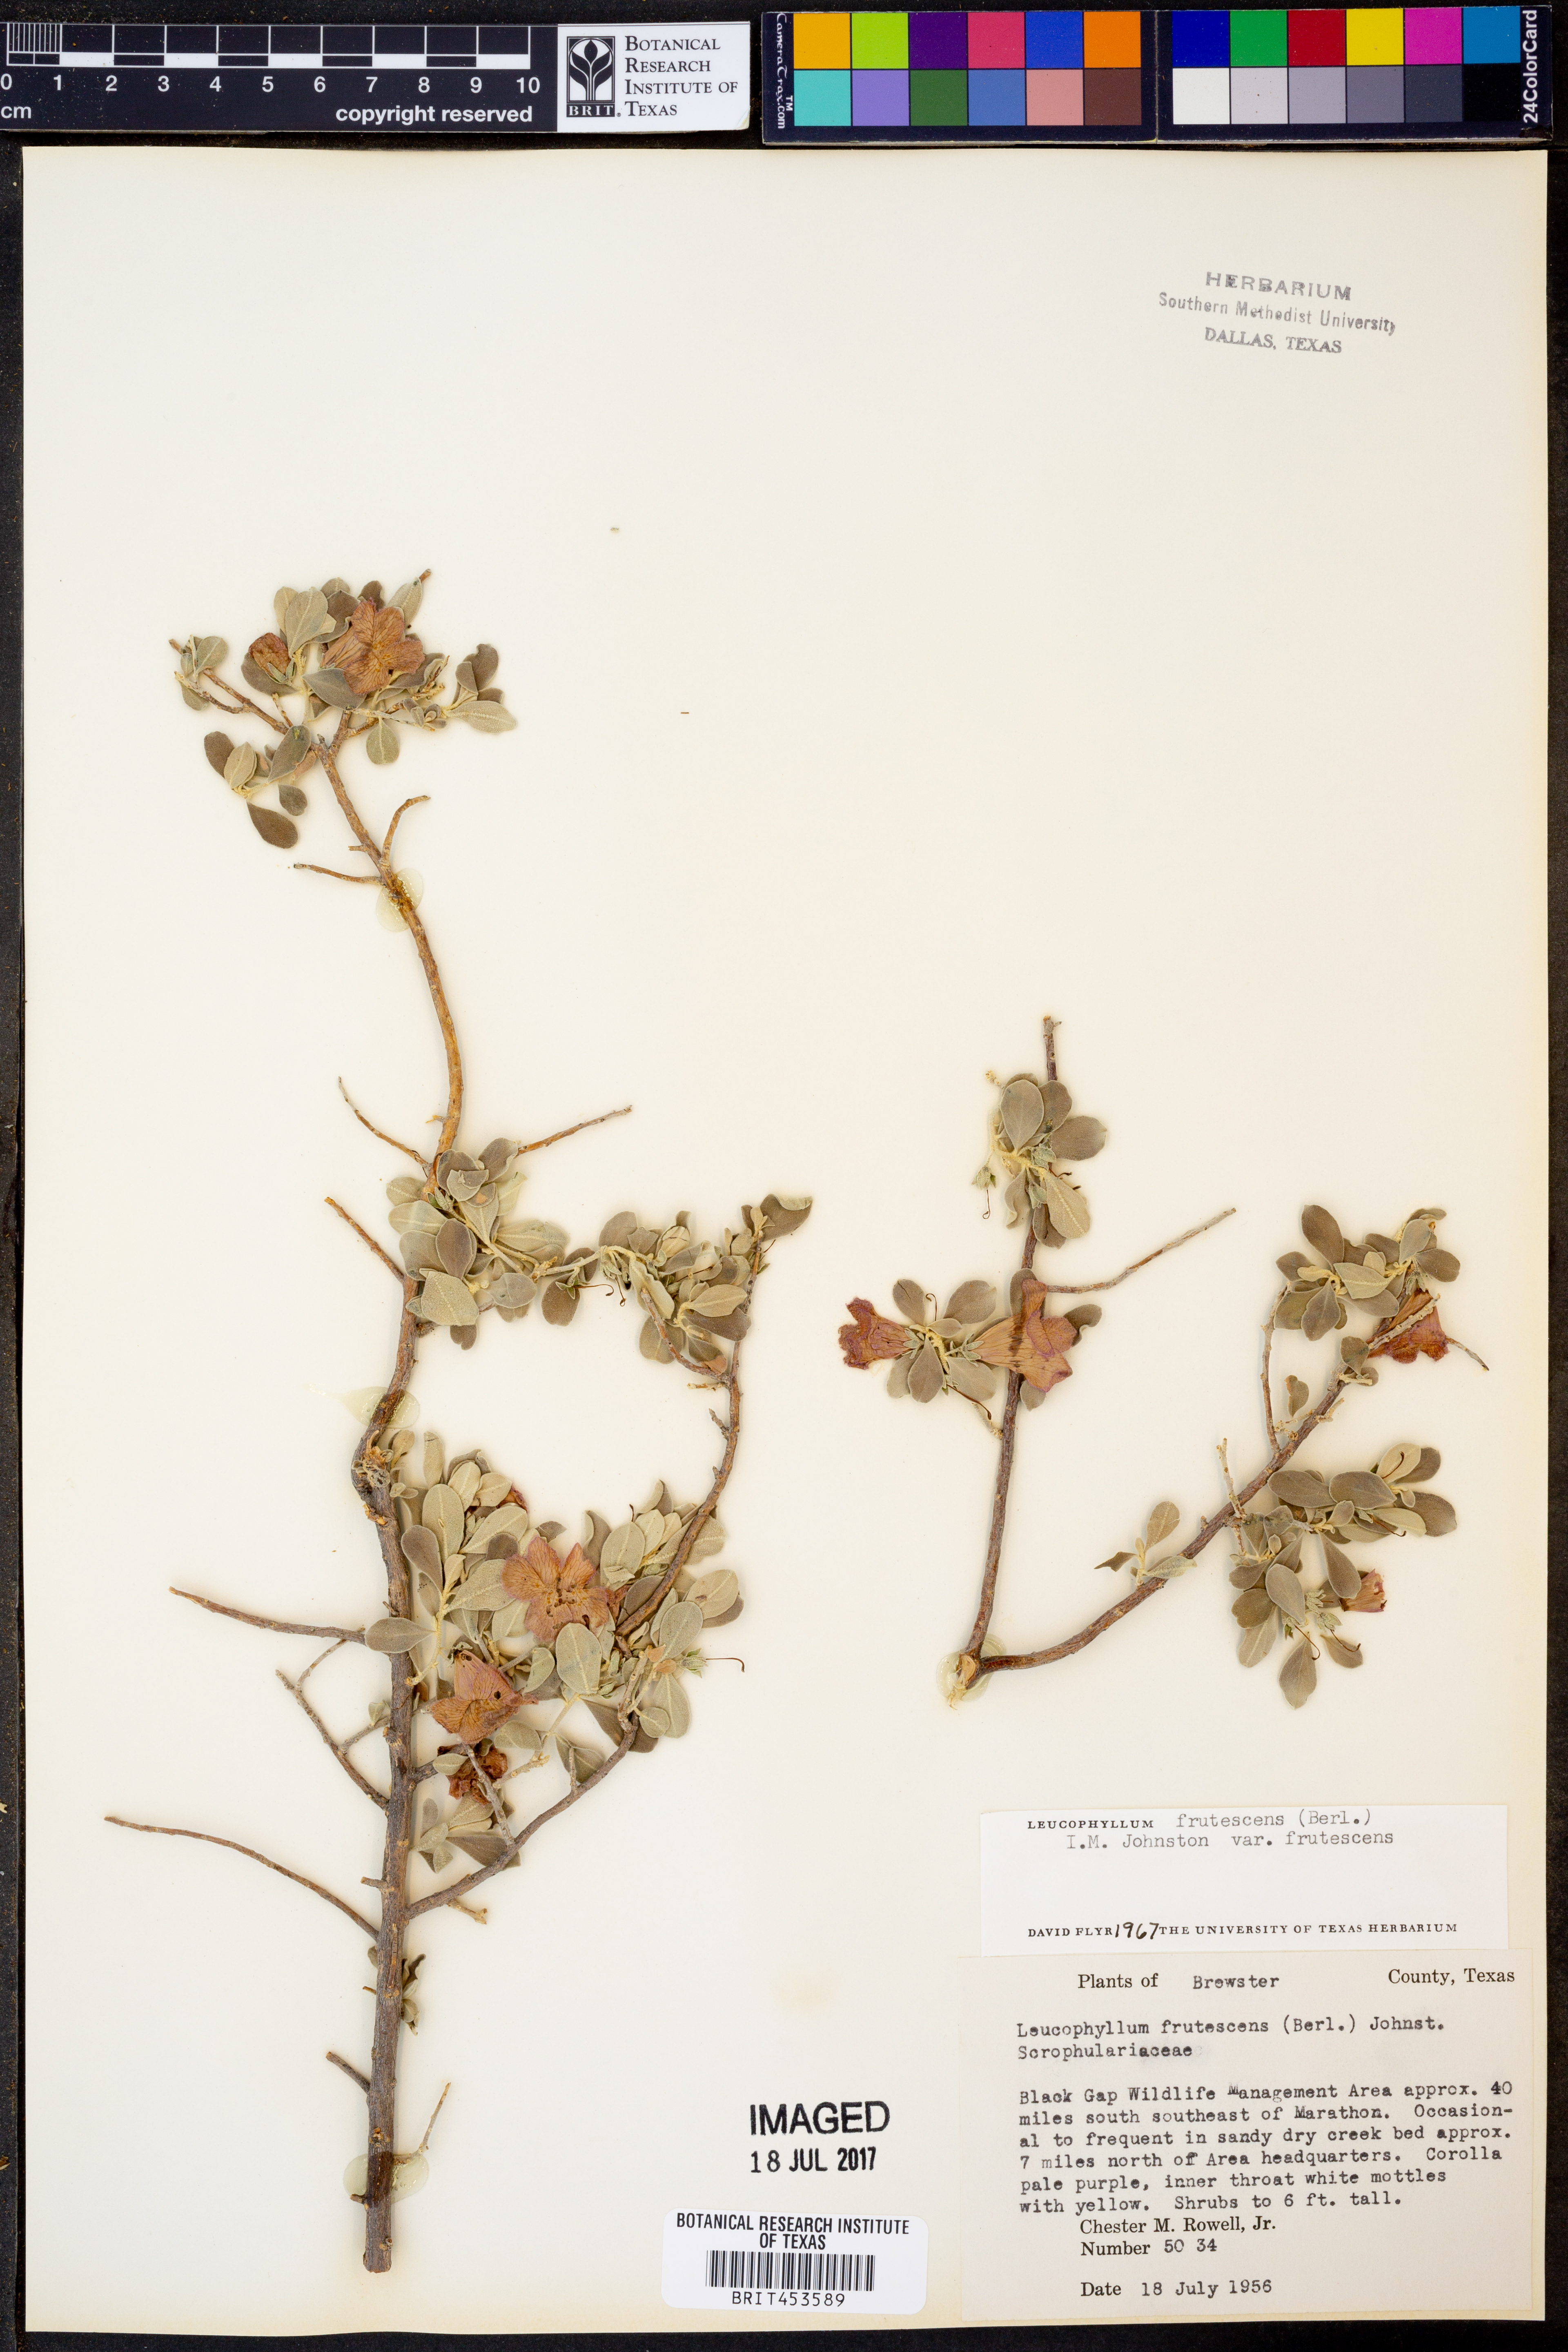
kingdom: Plantae
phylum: Tracheophyta
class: Magnoliopsida
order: Lamiales
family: Scrophulariaceae
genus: Leucophyllum
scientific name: Leucophyllum frutescens
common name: Texas silverleaf
